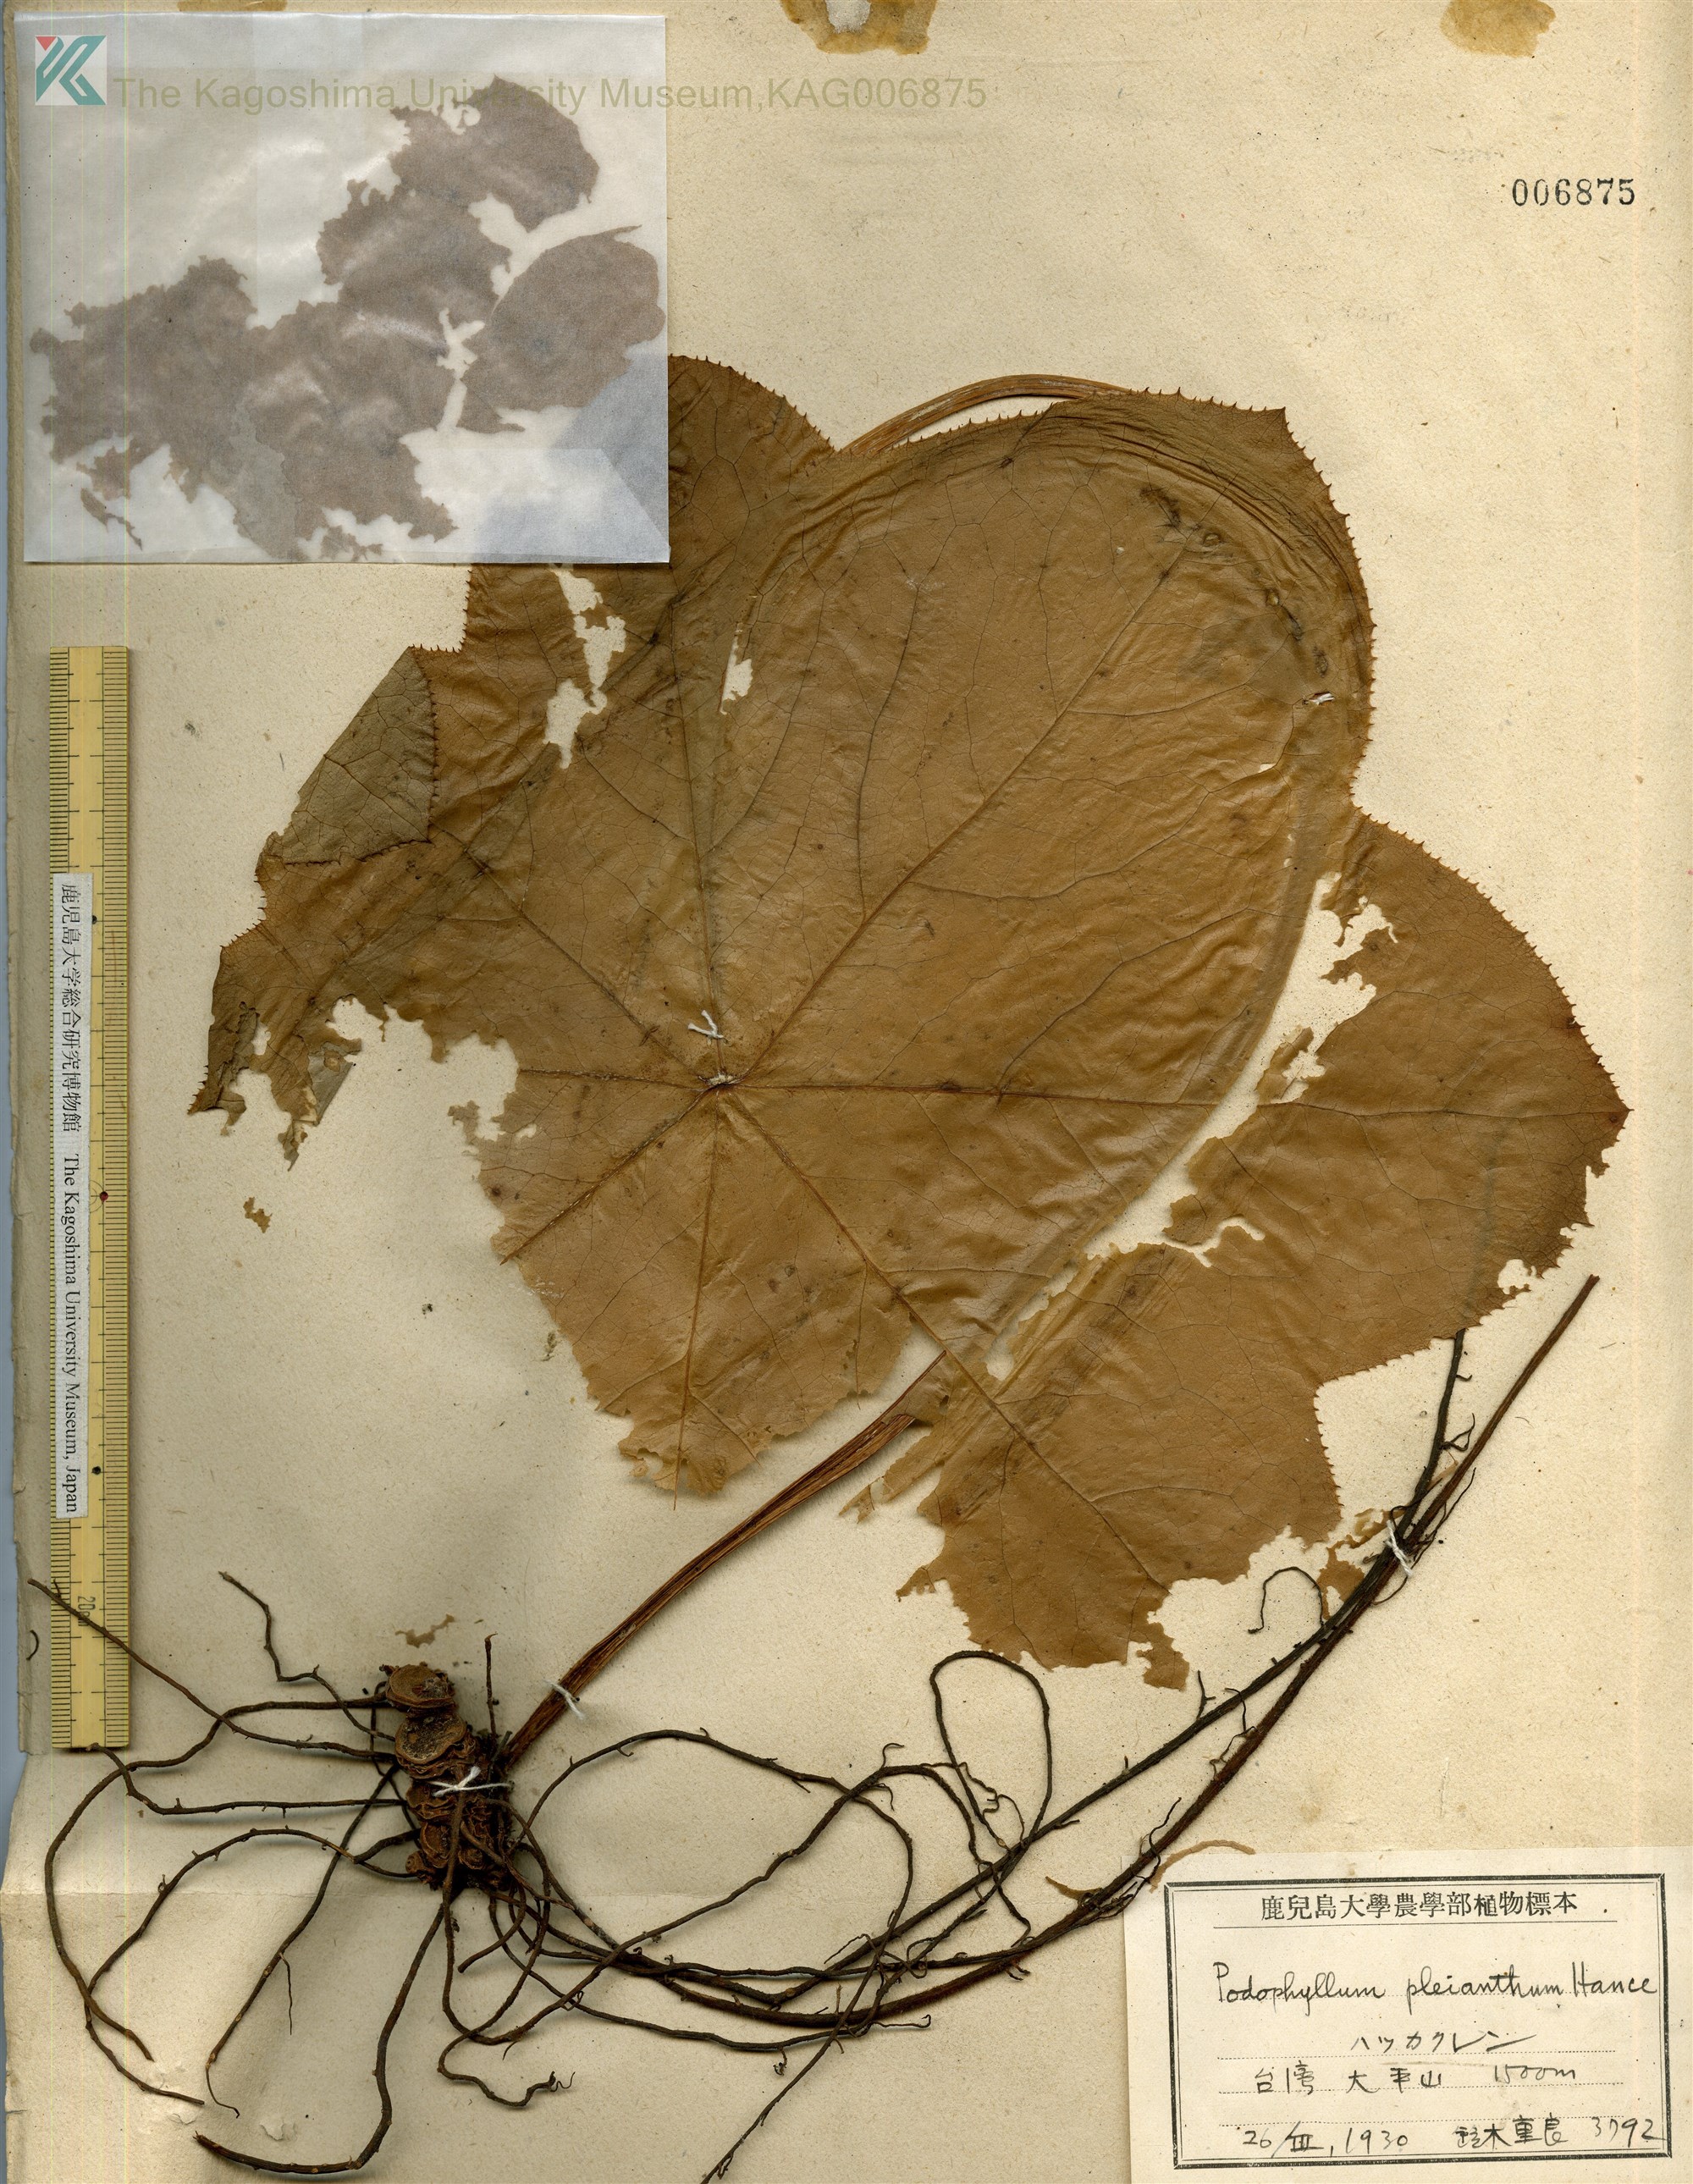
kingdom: Plantae
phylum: Tracheophyta
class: Magnoliopsida
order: Ranunculales
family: Berberidaceae
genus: Dysosma
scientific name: Dysosma pleiantha
